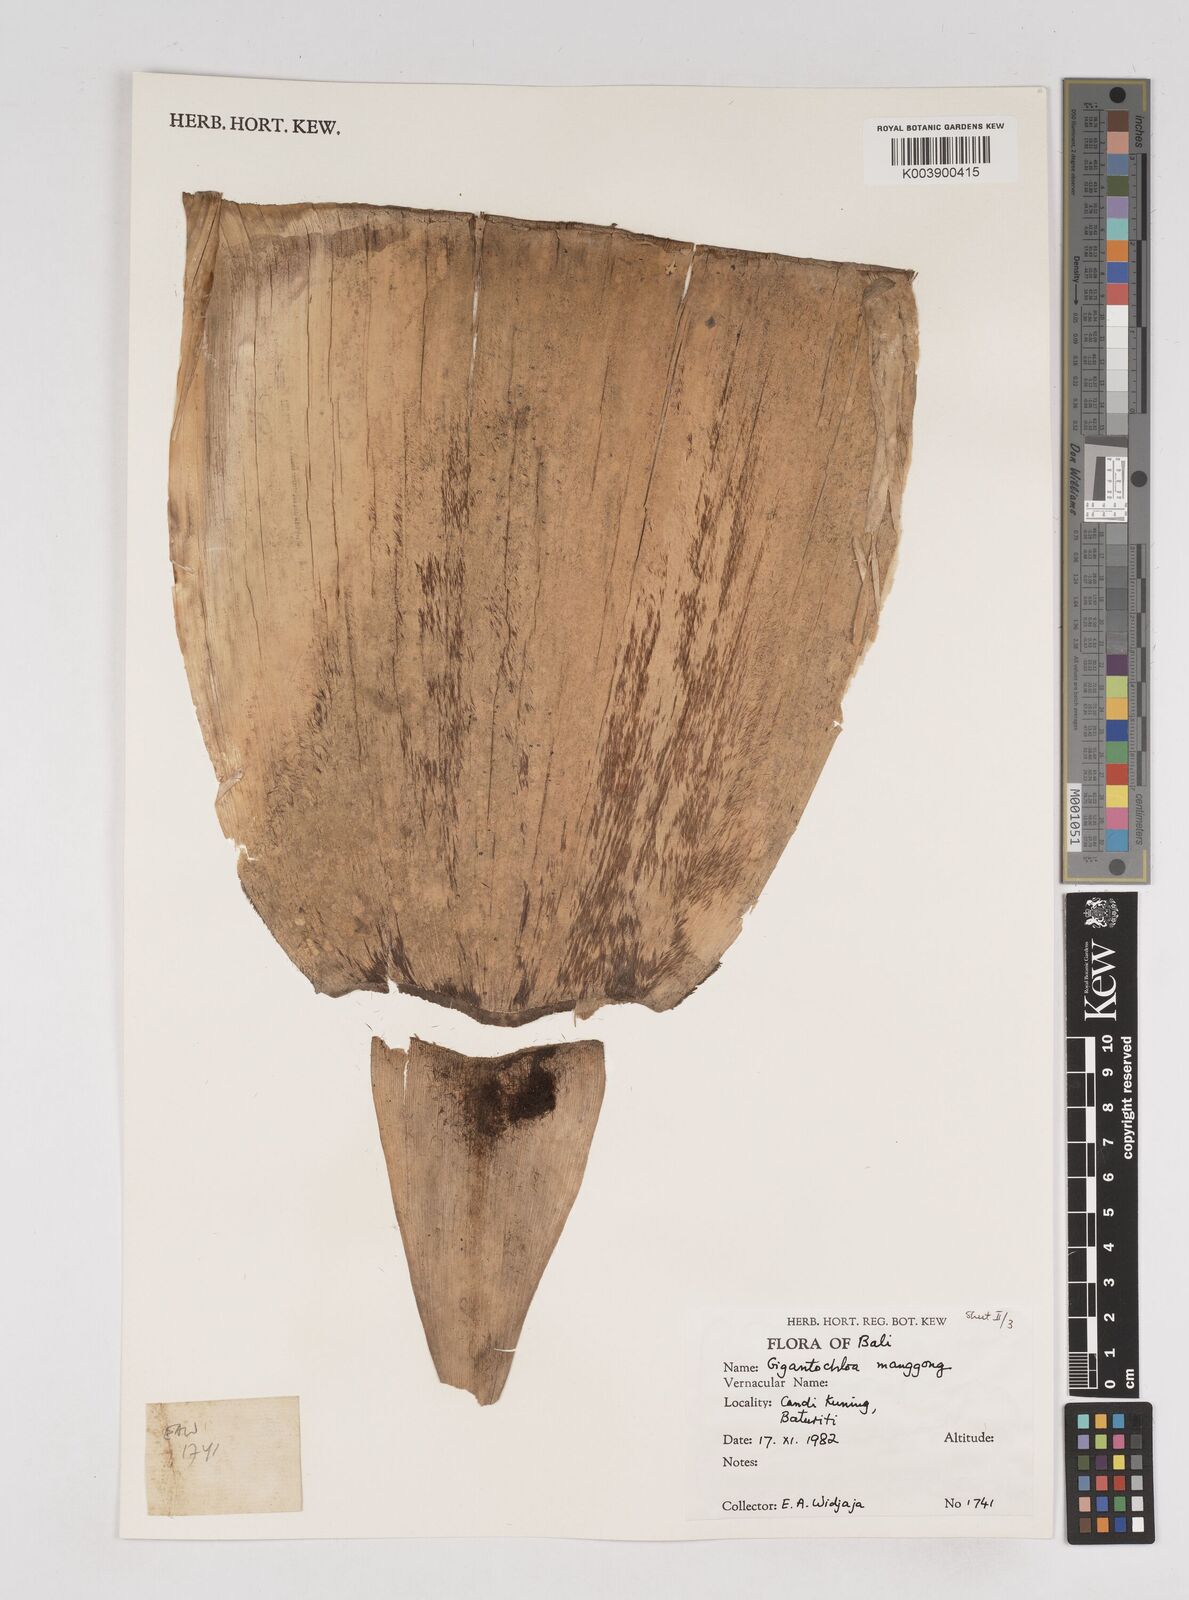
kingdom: Plantae
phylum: Tracheophyta
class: Liliopsida
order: Poales
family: Poaceae
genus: Gigantochloa
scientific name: Gigantochloa manggong
